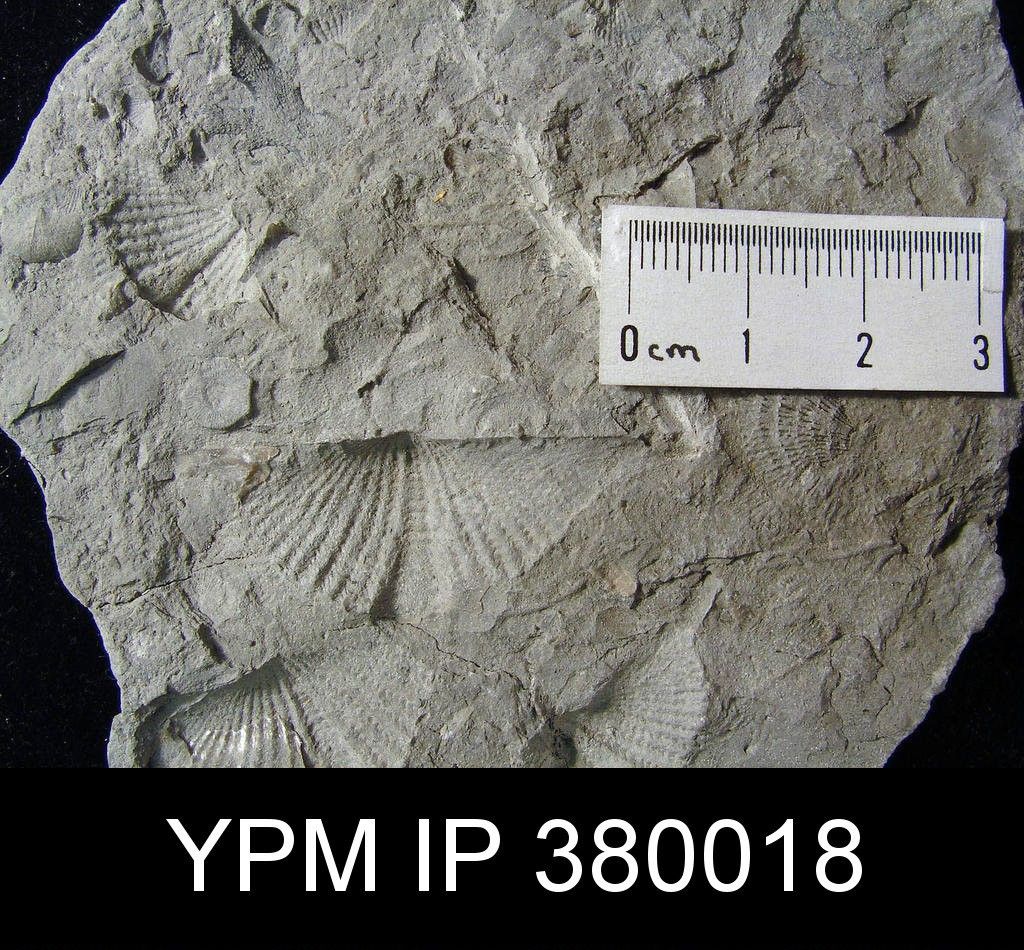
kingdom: Animalia
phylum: Brachiopoda
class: Rhynchonellata
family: Mucrospiriferidae
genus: Mucrospirifer
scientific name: Mucrospirifer
